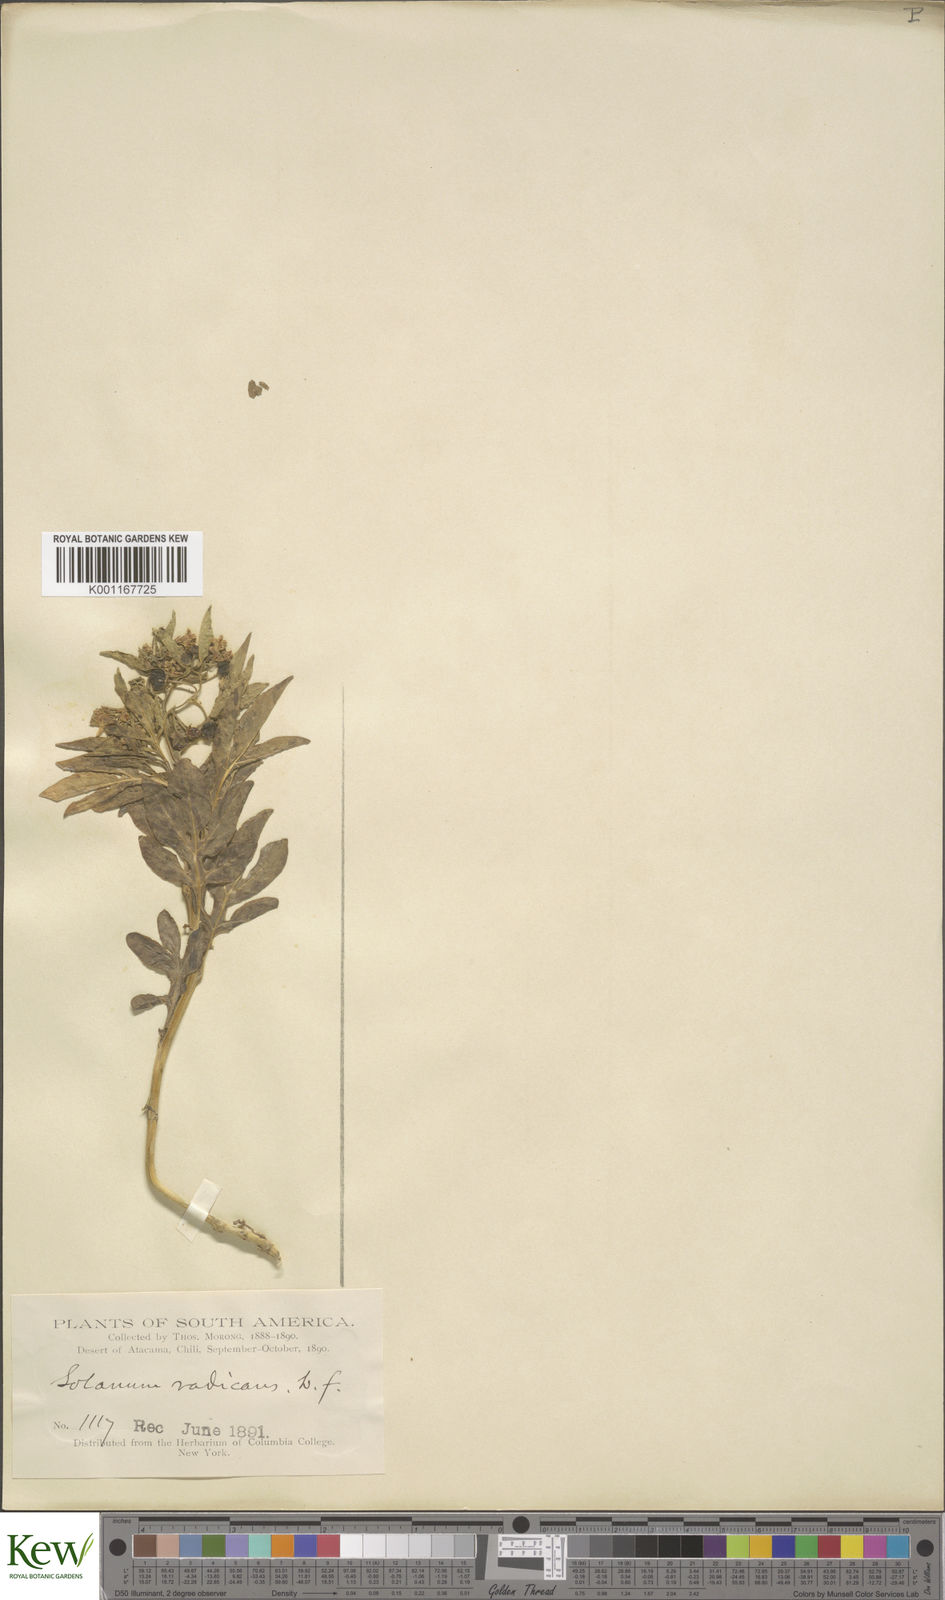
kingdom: Plantae
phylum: Tracheophyta
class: Magnoliopsida
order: Solanales
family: Solanaceae
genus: Solanum
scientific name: Solanum radicans
